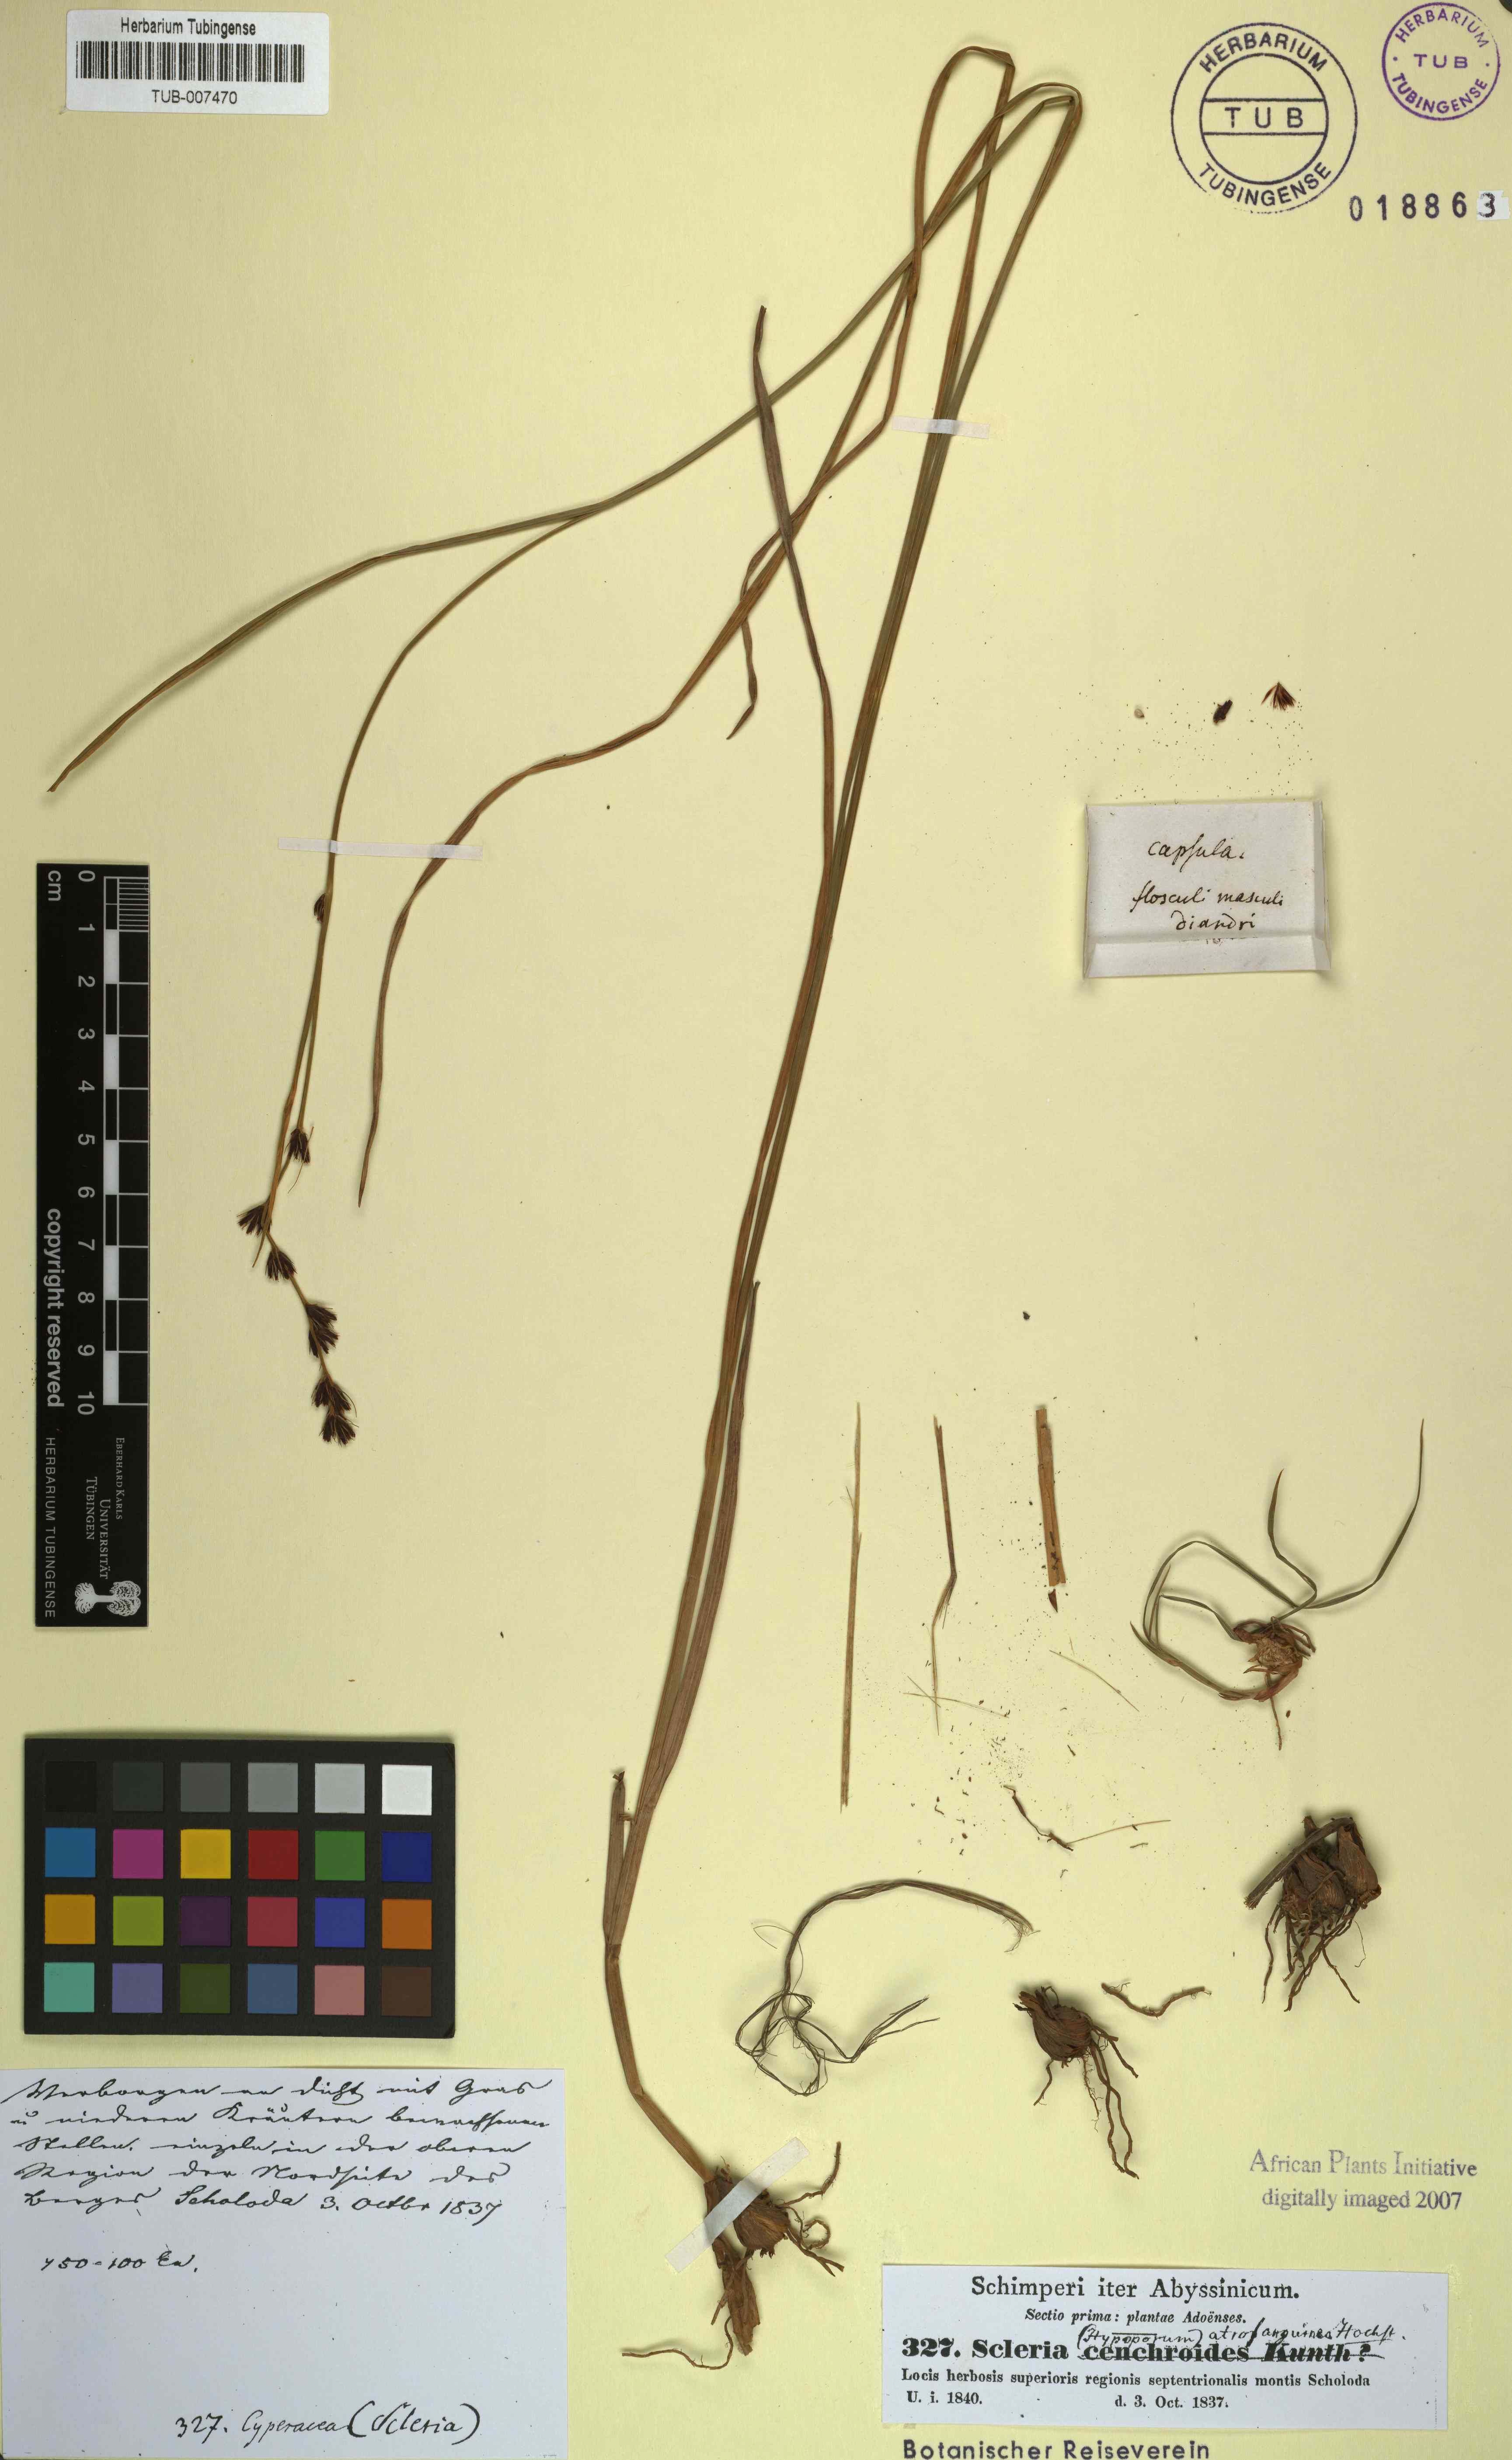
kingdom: Plantae
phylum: Tracheophyta
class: Liliopsida
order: Poales
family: Cyperaceae
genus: Scleria
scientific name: Scleria bulbifera
